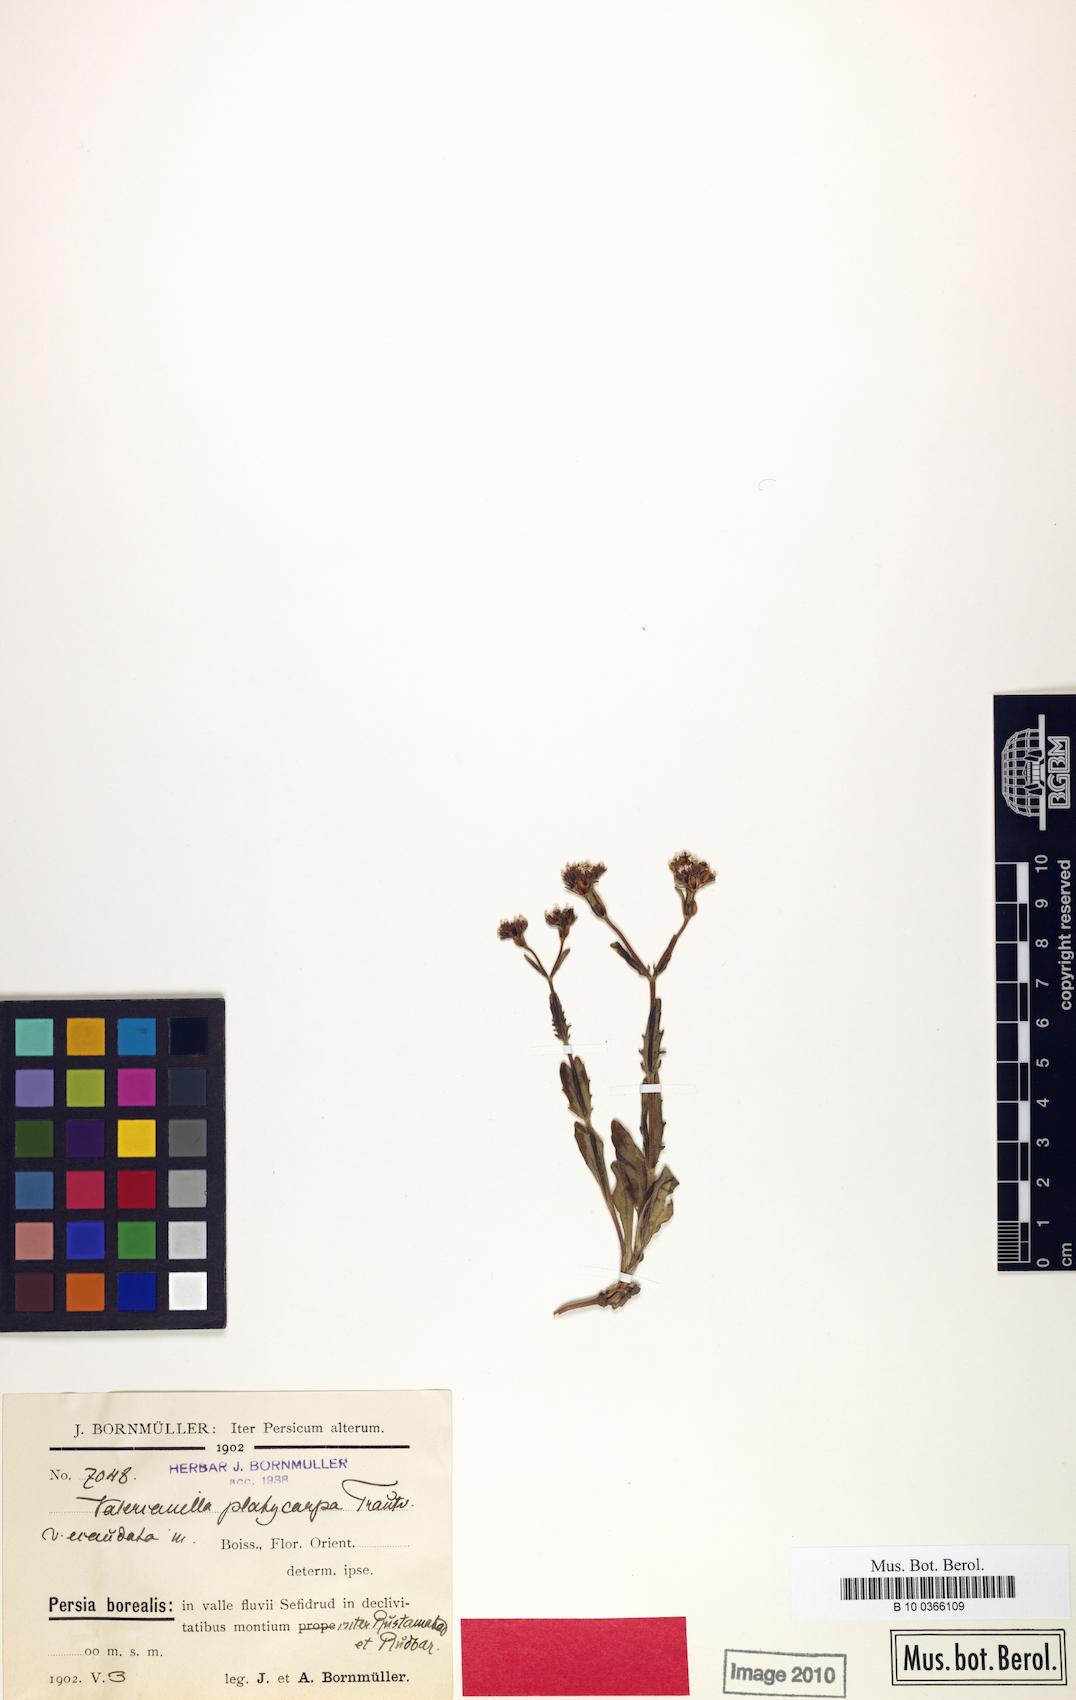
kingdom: Plantae
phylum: Tracheophyta
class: Magnoliopsida
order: Dipsacales
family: Caprifoliaceae
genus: Valerianella
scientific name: Valerianella platycarpa
